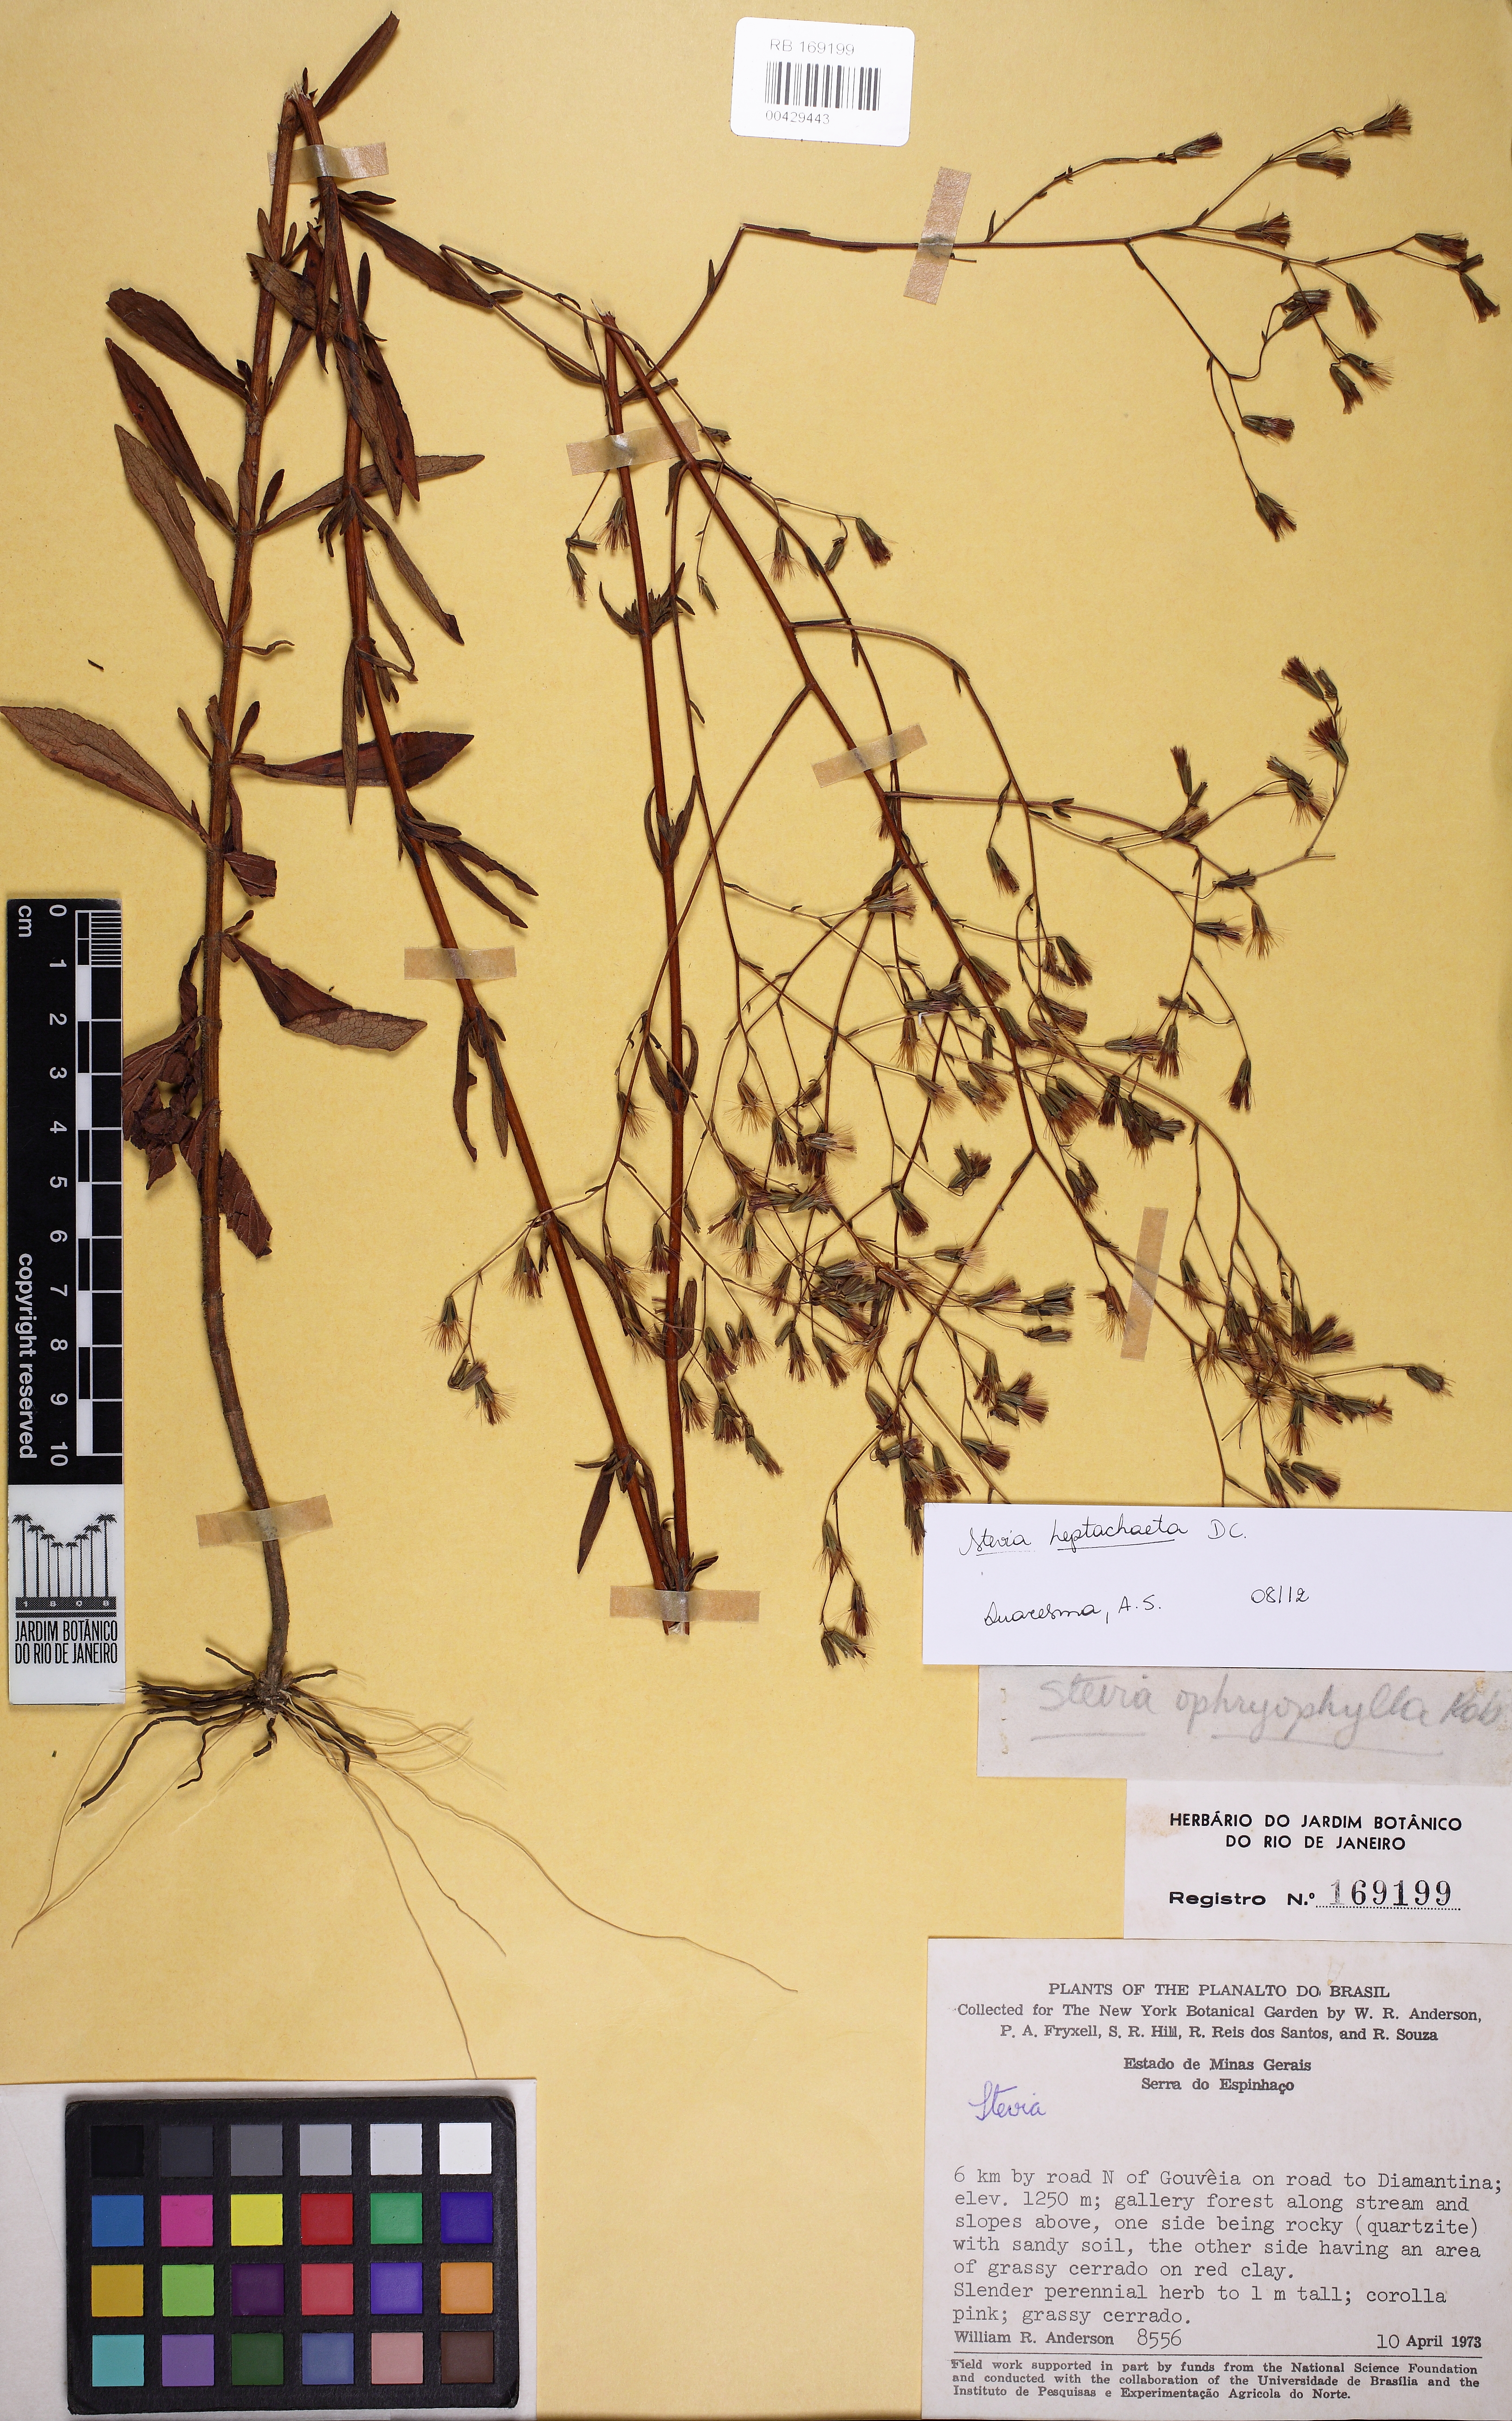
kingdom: Plantae
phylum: Tracheophyta
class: Magnoliopsida
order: Asterales
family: Asteraceae
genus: Stevia
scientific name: Stevia heptachaeta
